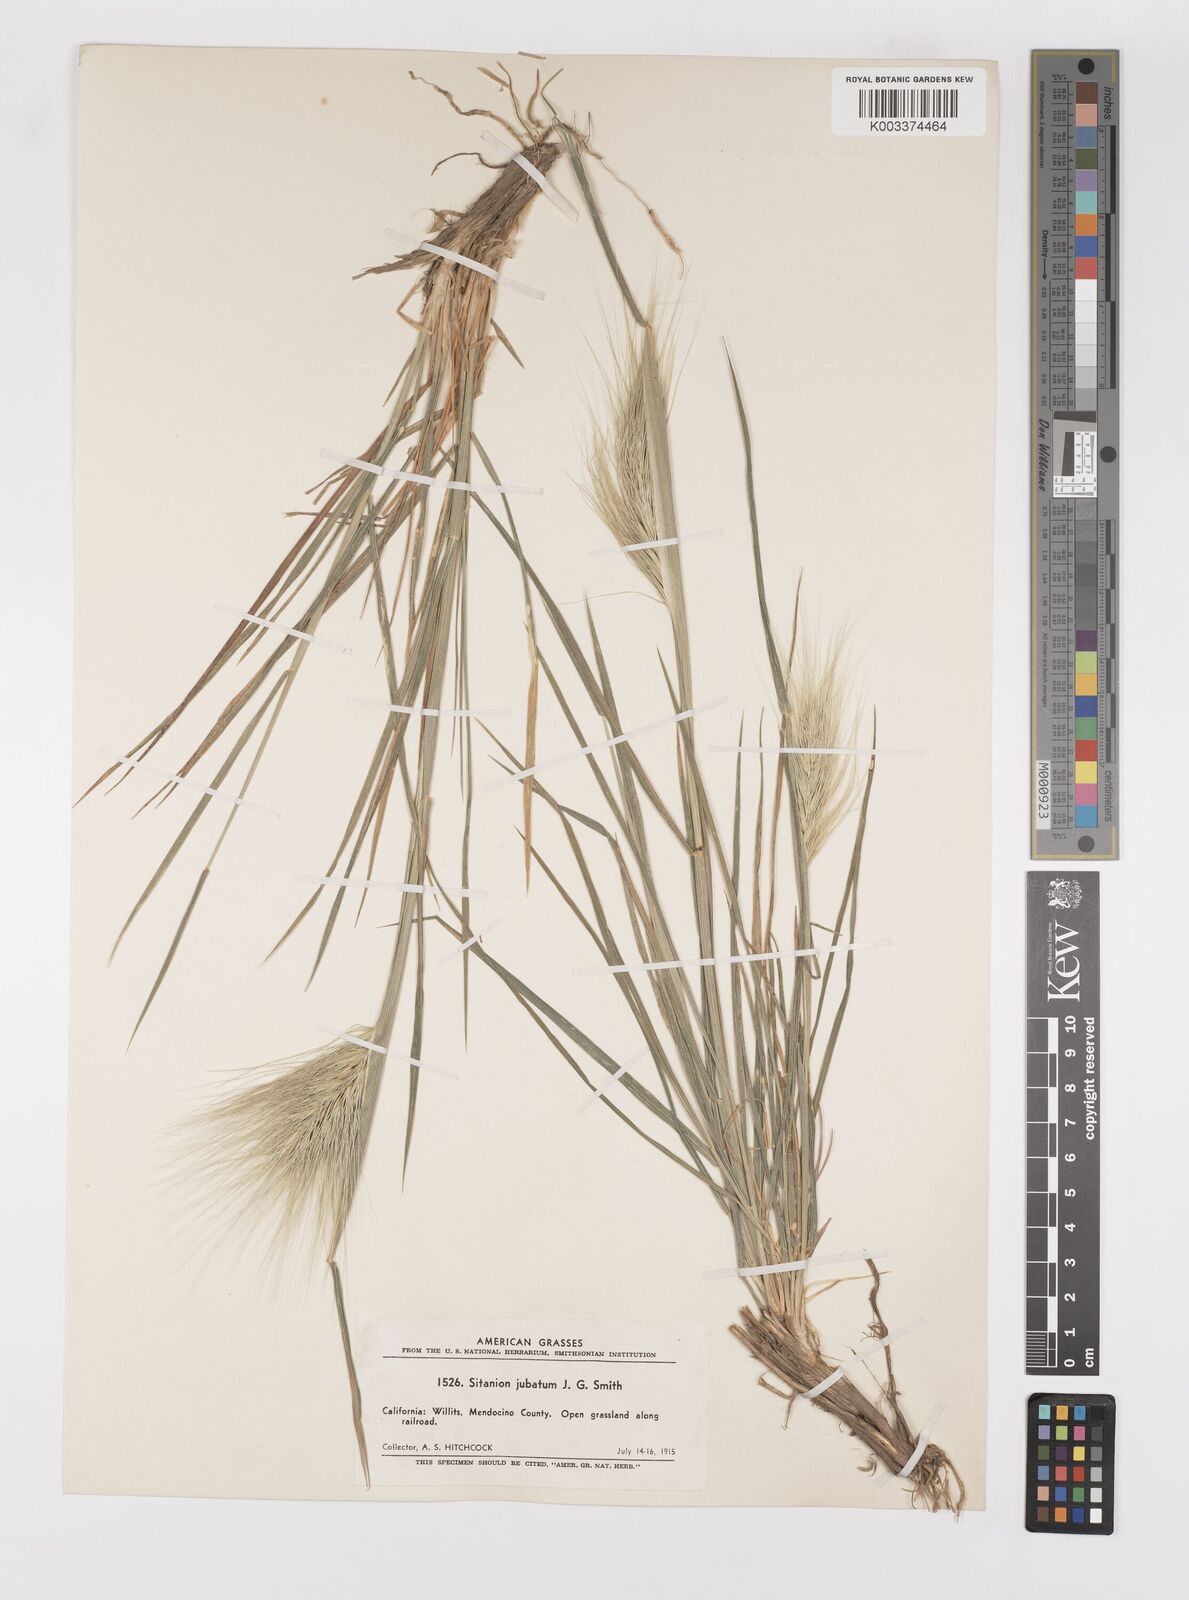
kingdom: Plantae
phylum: Tracheophyta
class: Liliopsida
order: Poales
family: Poaceae
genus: Elymus
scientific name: Elymus multisetus
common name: Big squirreltail
